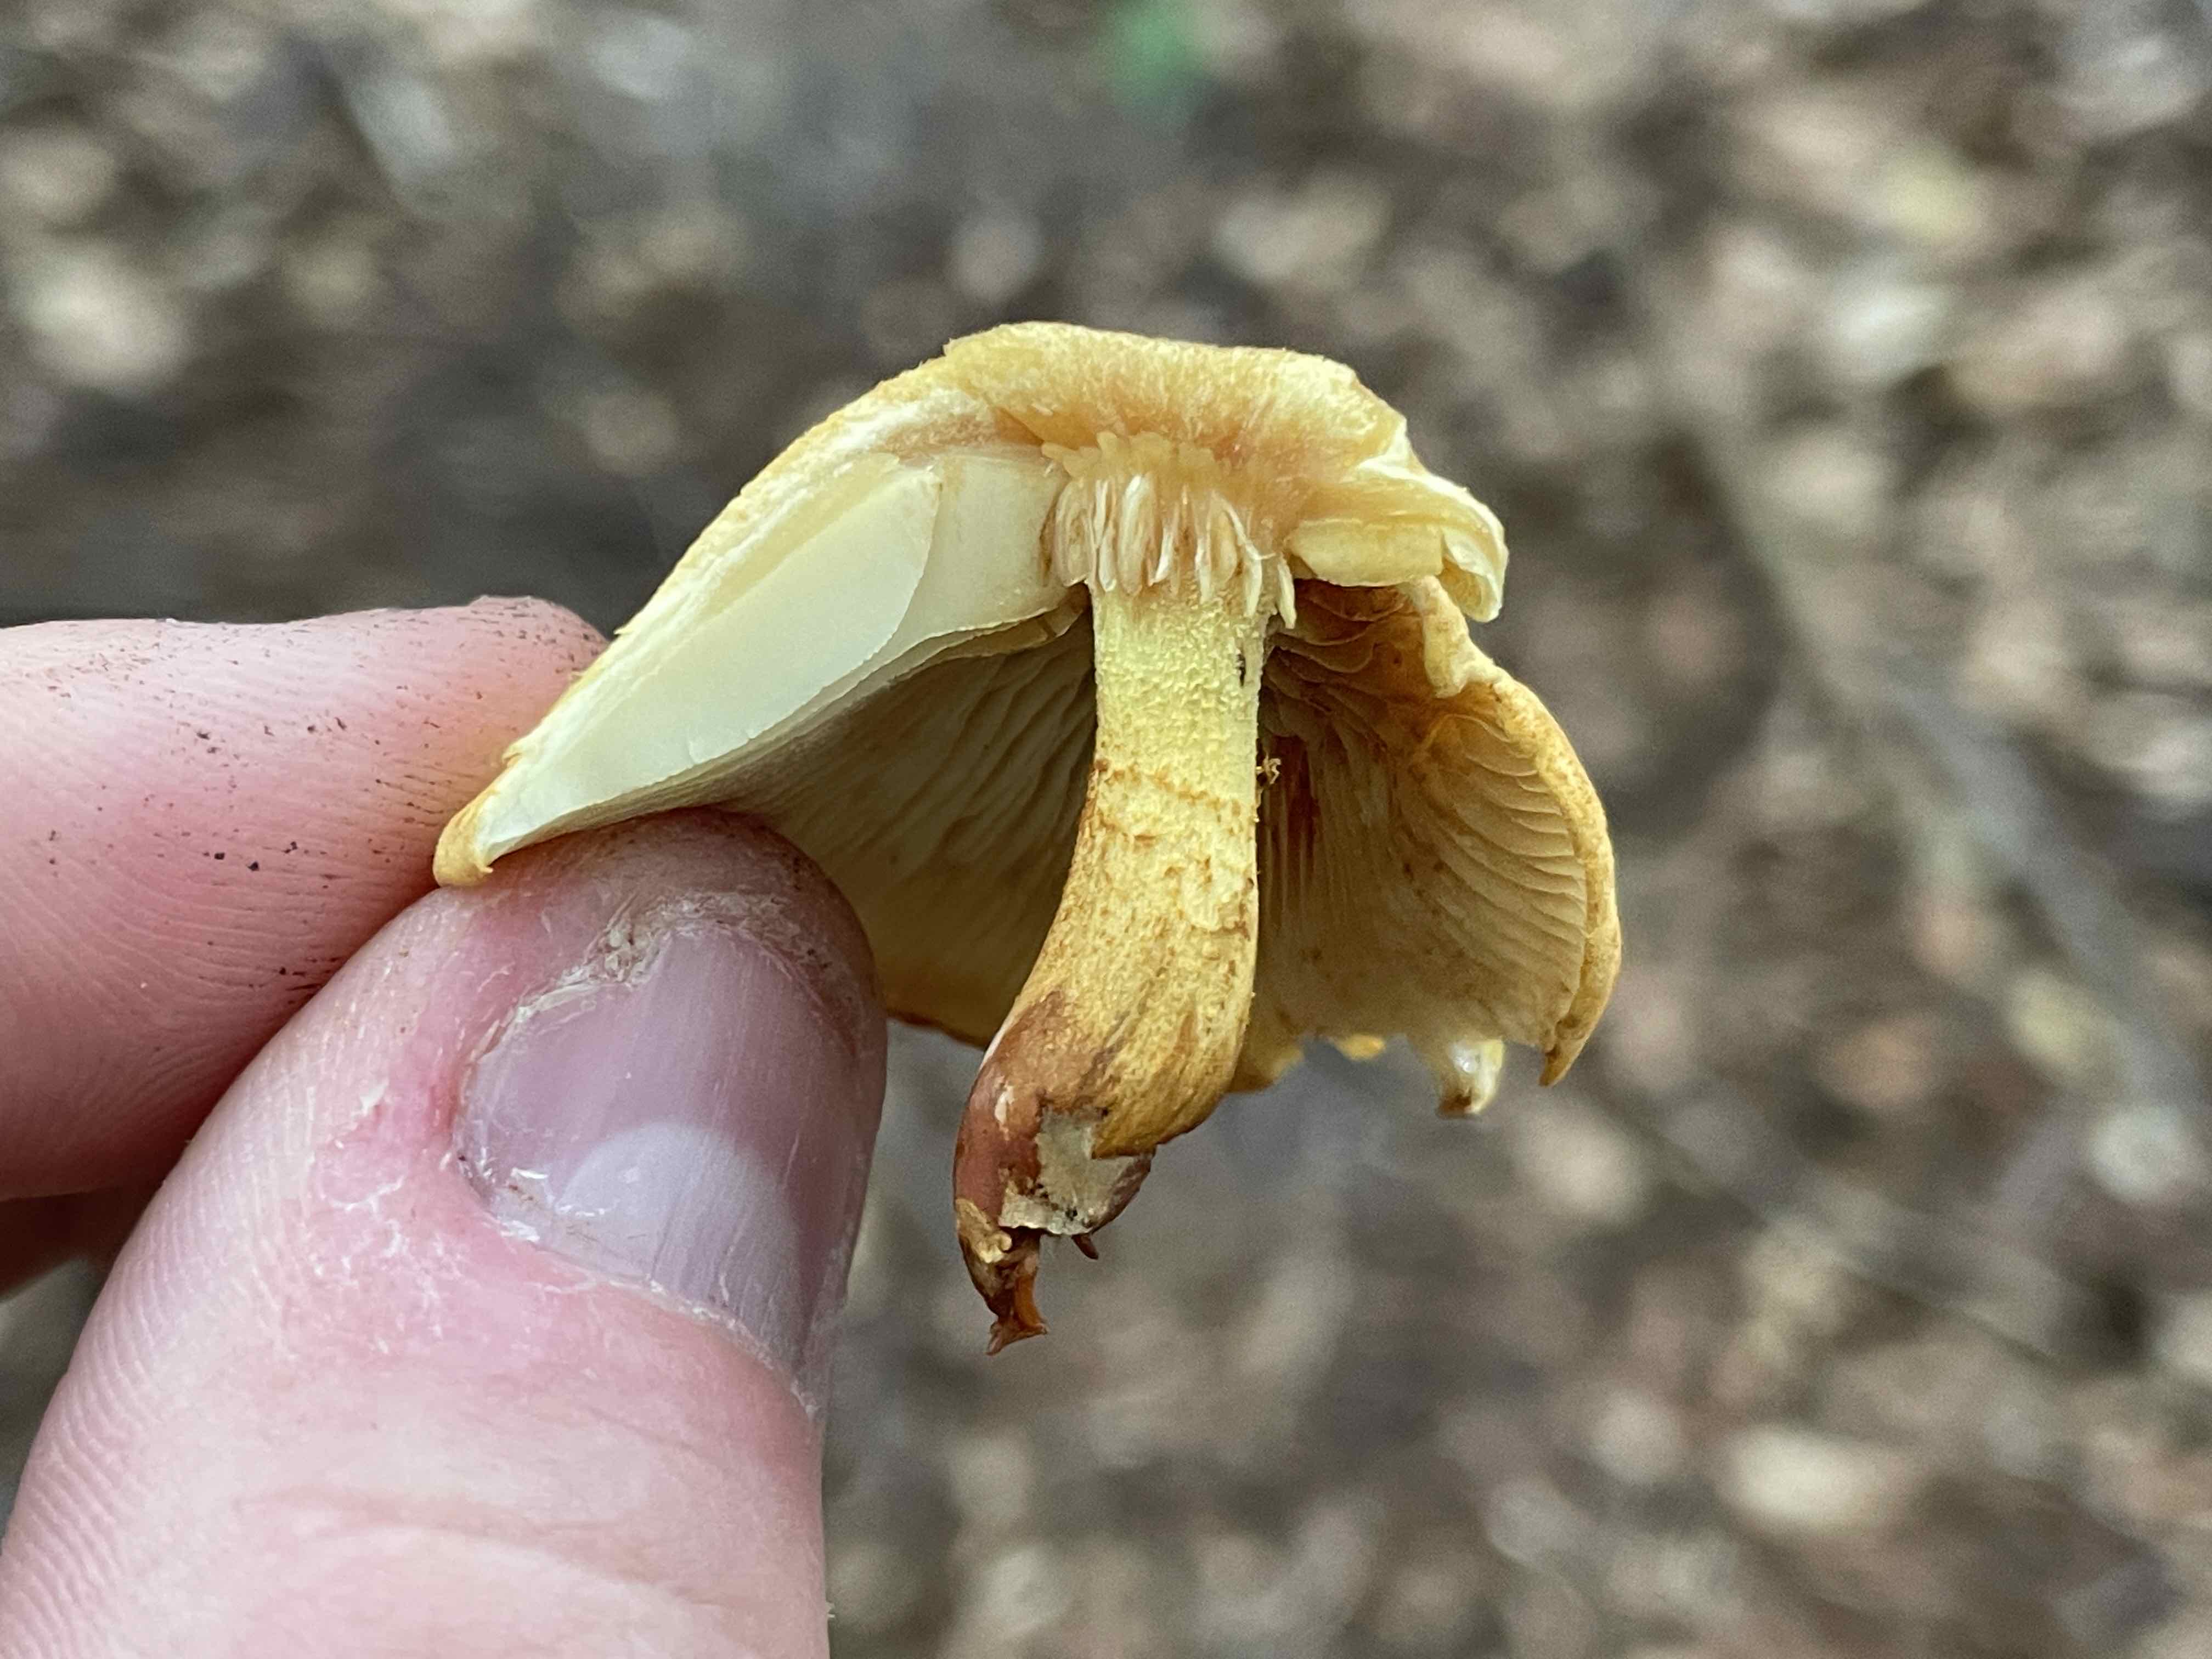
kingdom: Fungi
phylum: Basidiomycota
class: Agaricomycetes
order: Agaricales
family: Strophariaceae
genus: Pholiota
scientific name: Pholiota tuberculosa
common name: finskællet skælhat
